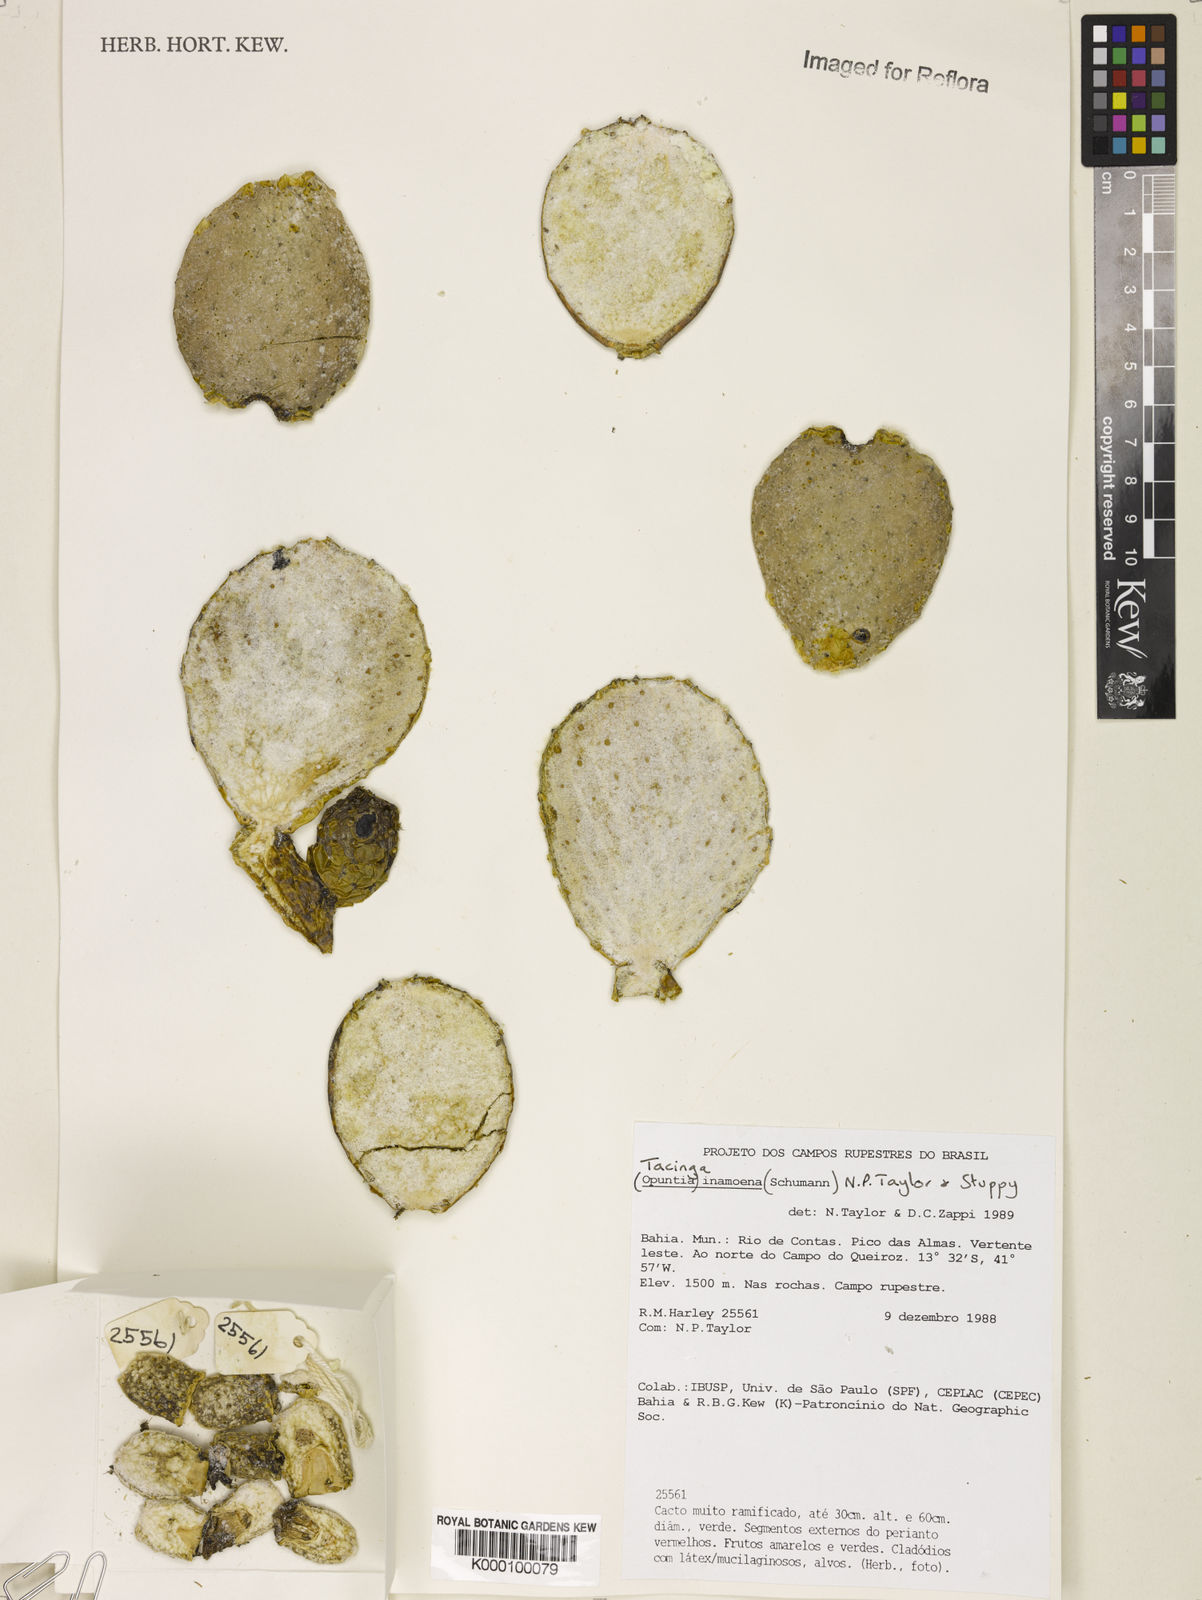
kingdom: Plantae
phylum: Tracheophyta
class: Magnoliopsida
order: Caryophyllales
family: Cactaceae
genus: Tacinga
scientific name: Tacinga inamoena
